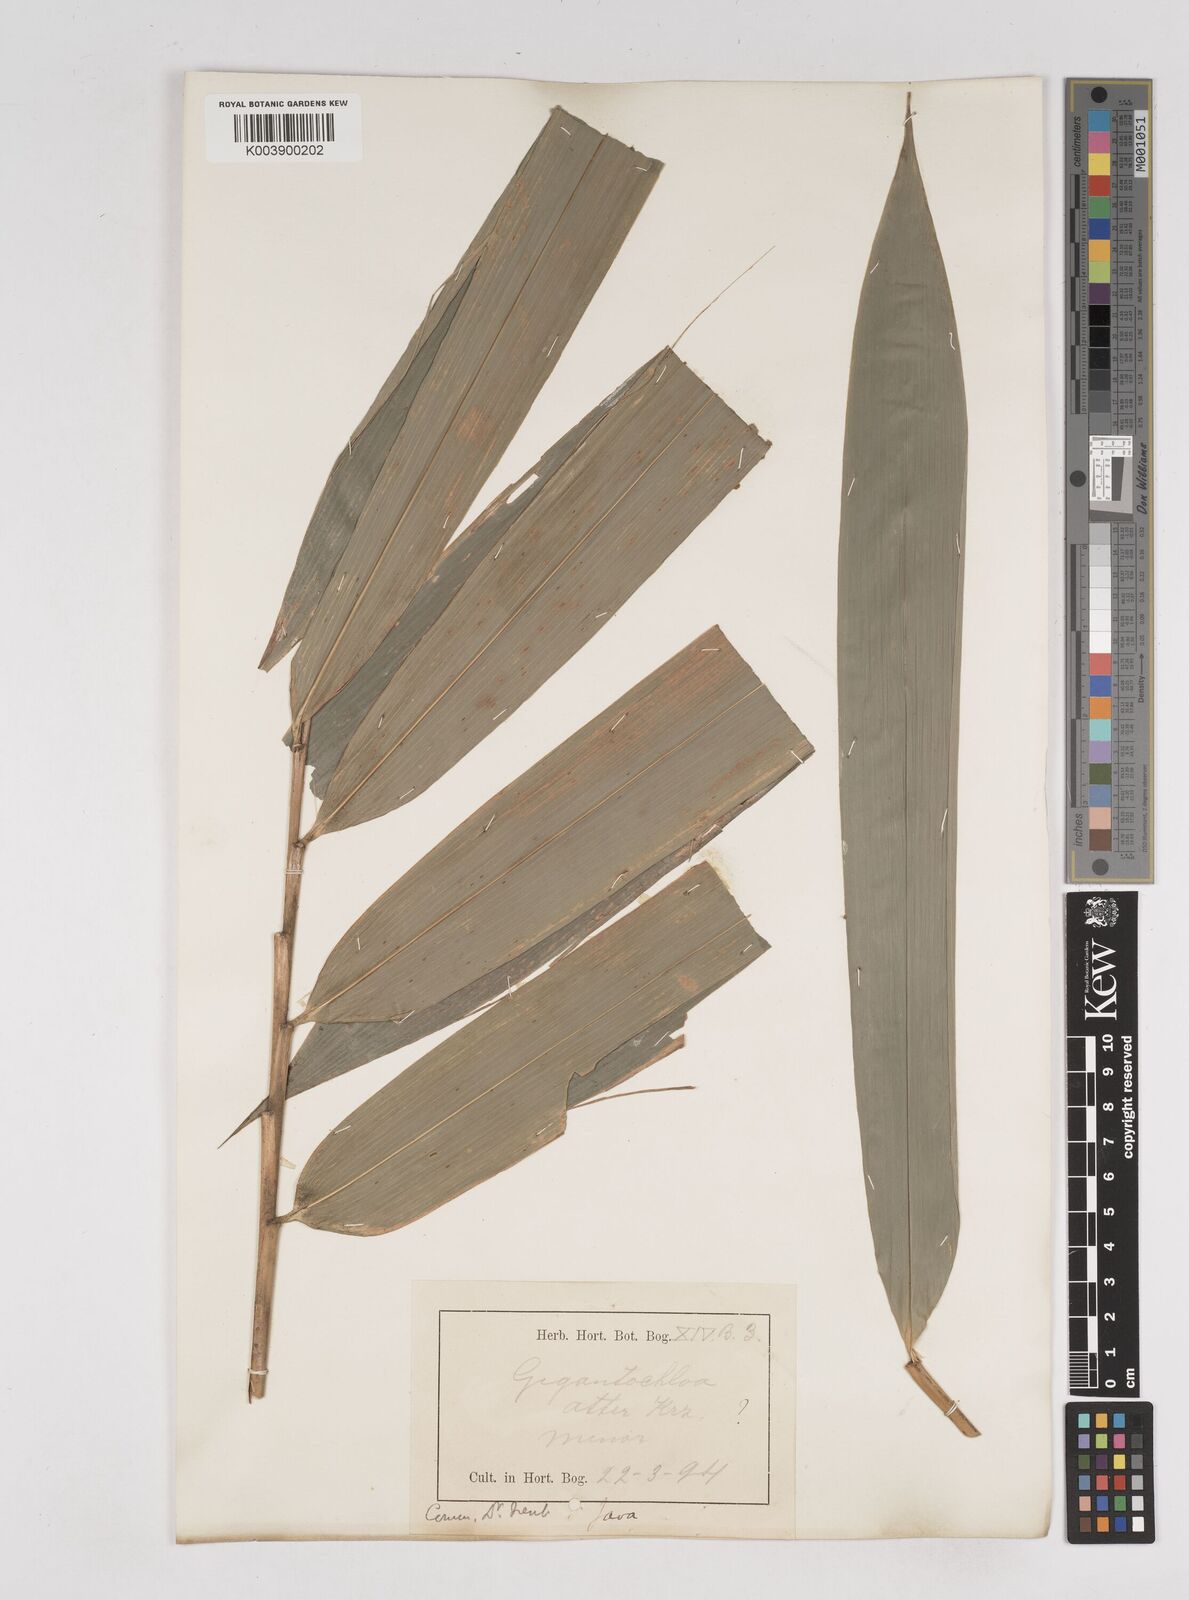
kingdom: Plantae
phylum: Tracheophyta
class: Liliopsida
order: Poales
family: Poaceae
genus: Gigantochloa
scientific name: Gigantochloa atter
